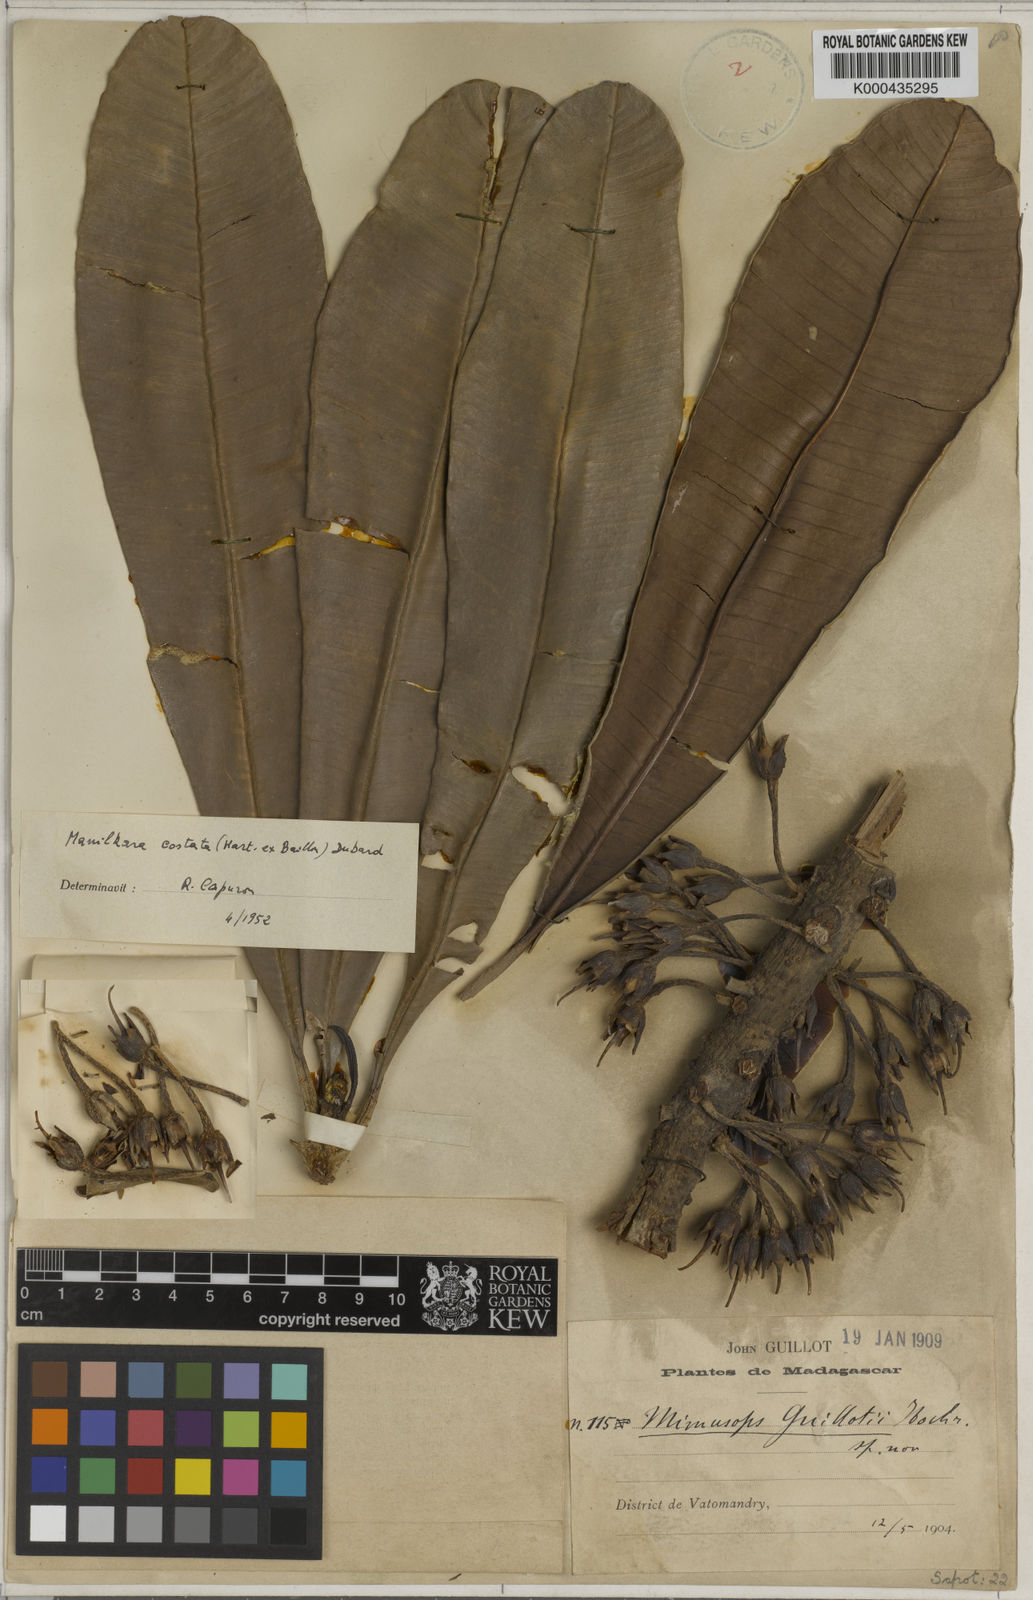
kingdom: Plantae
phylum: Tracheophyta
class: Magnoliopsida
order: Ericales
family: Sapotaceae
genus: Labramia
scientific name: Labramia costata
